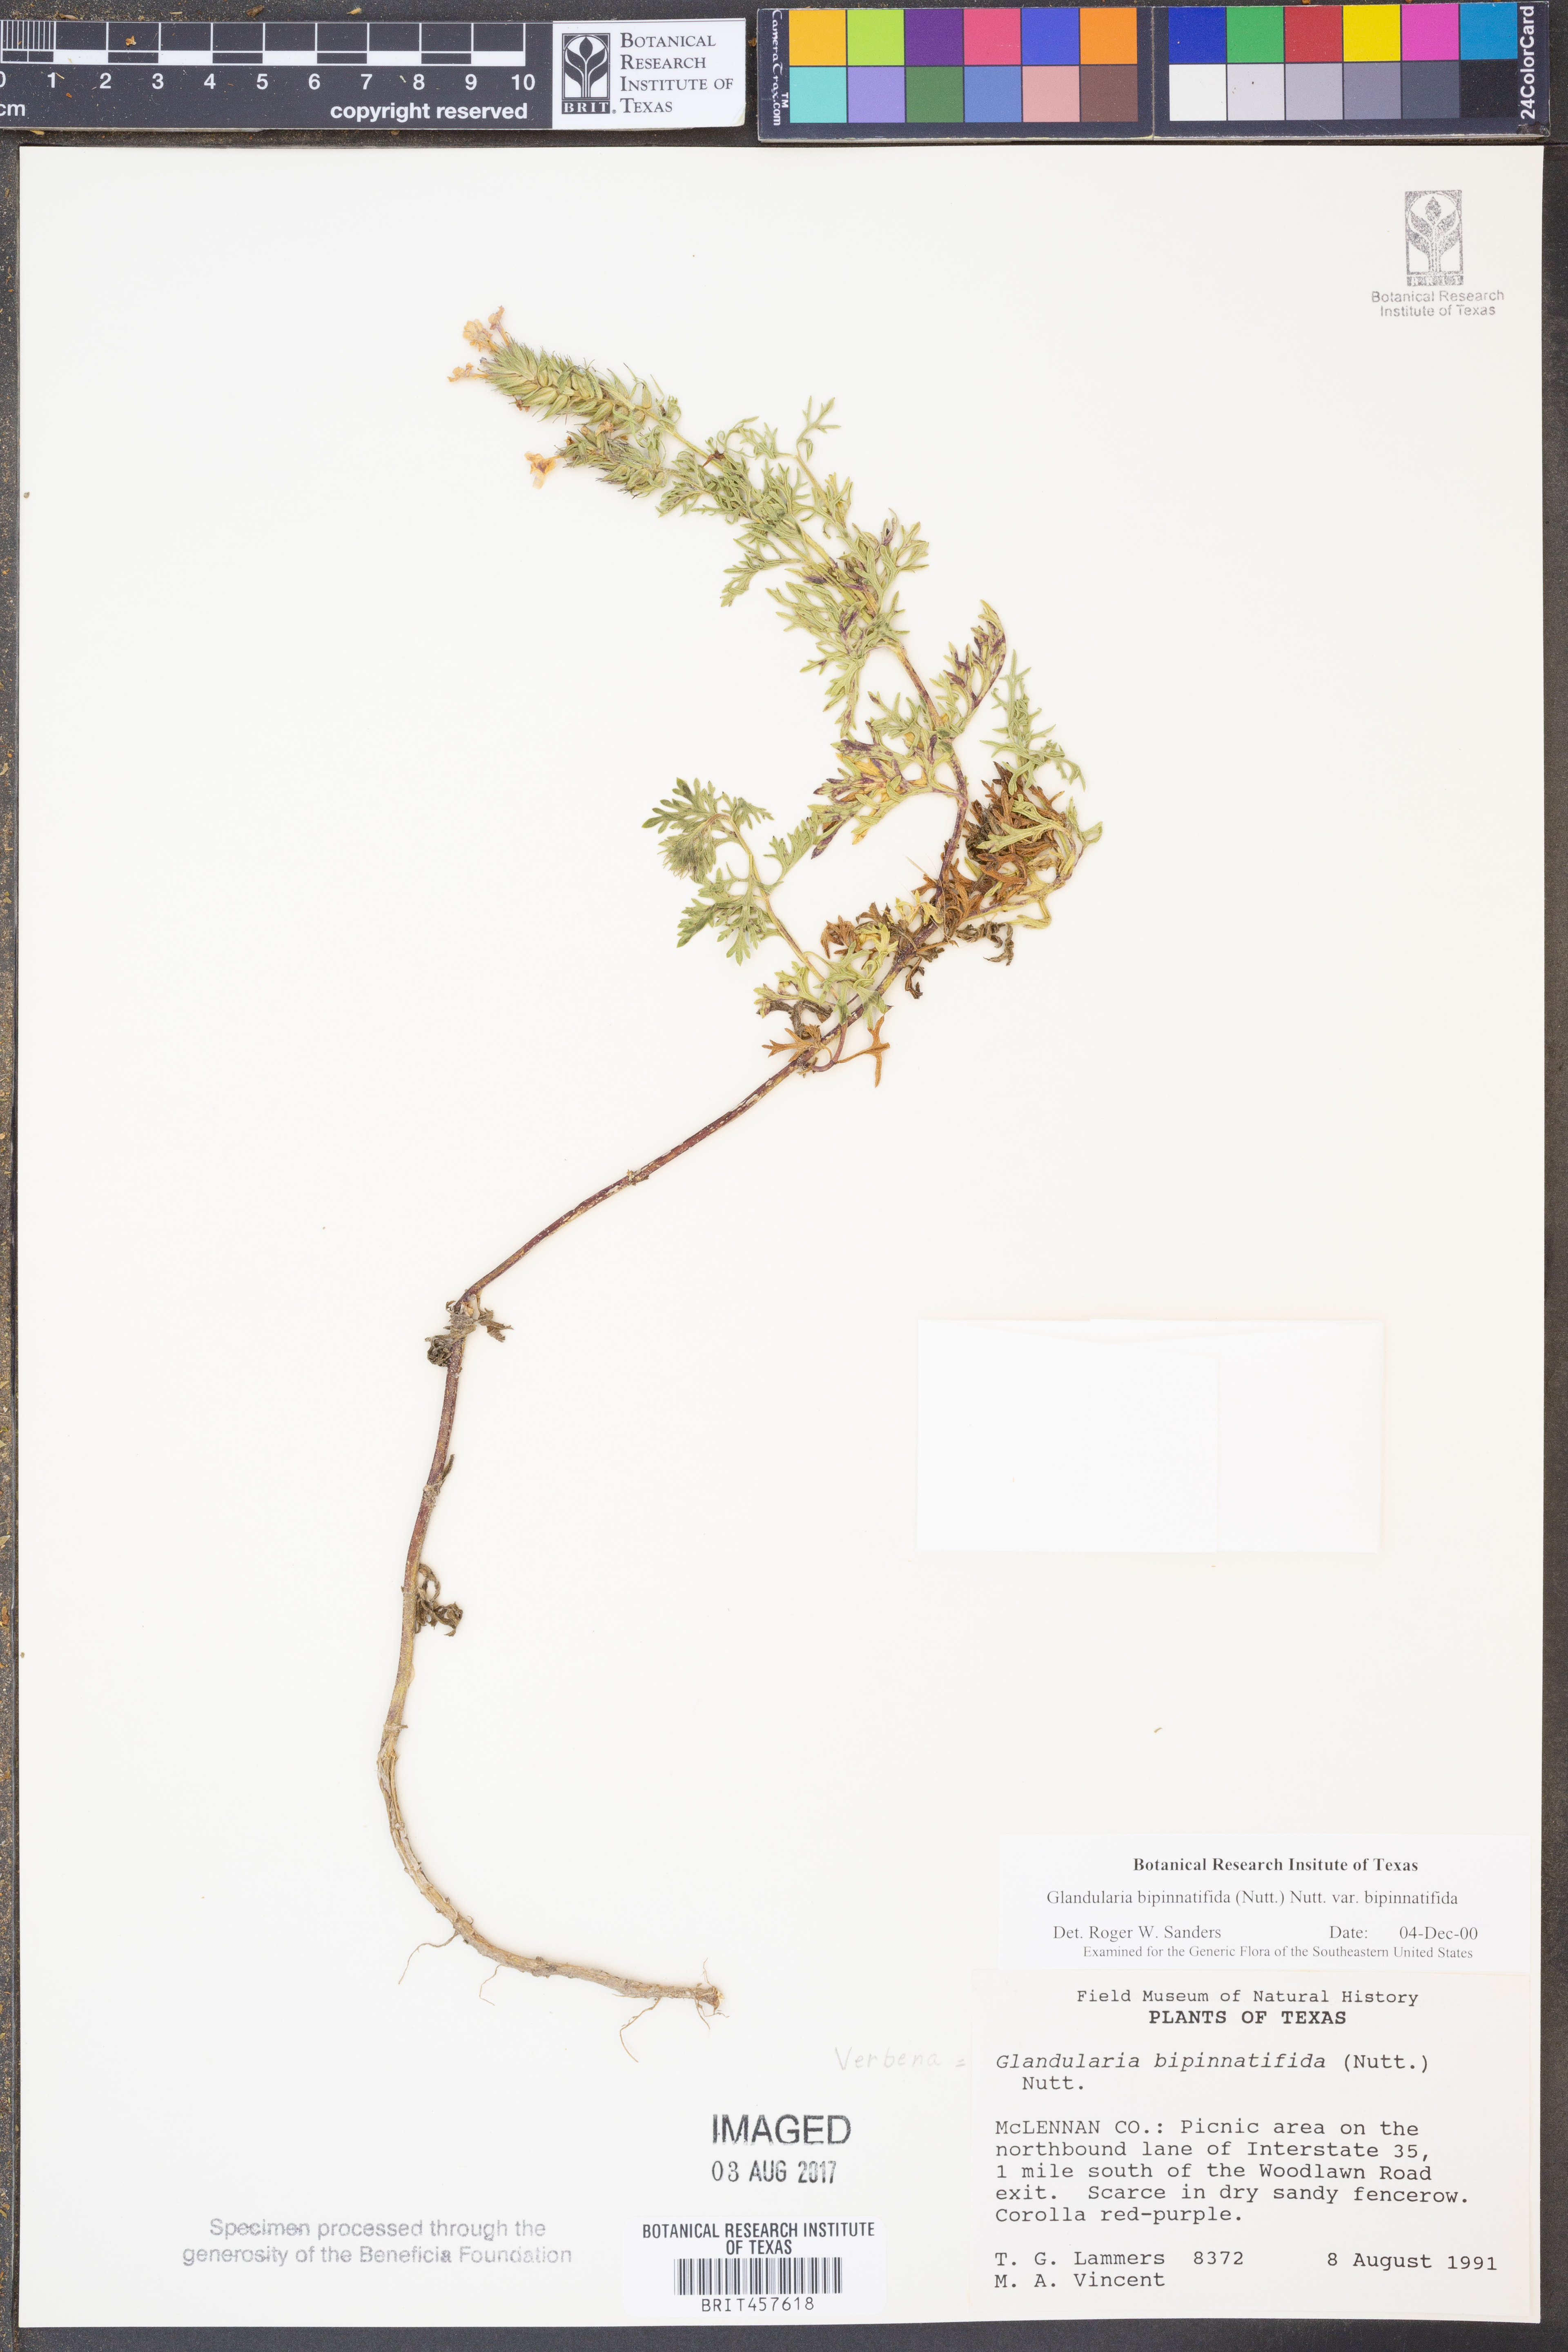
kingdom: Plantae
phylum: Tracheophyta
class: Magnoliopsida
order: Lamiales
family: Verbenaceae
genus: Verbena
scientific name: Verbena bipinnatifida
